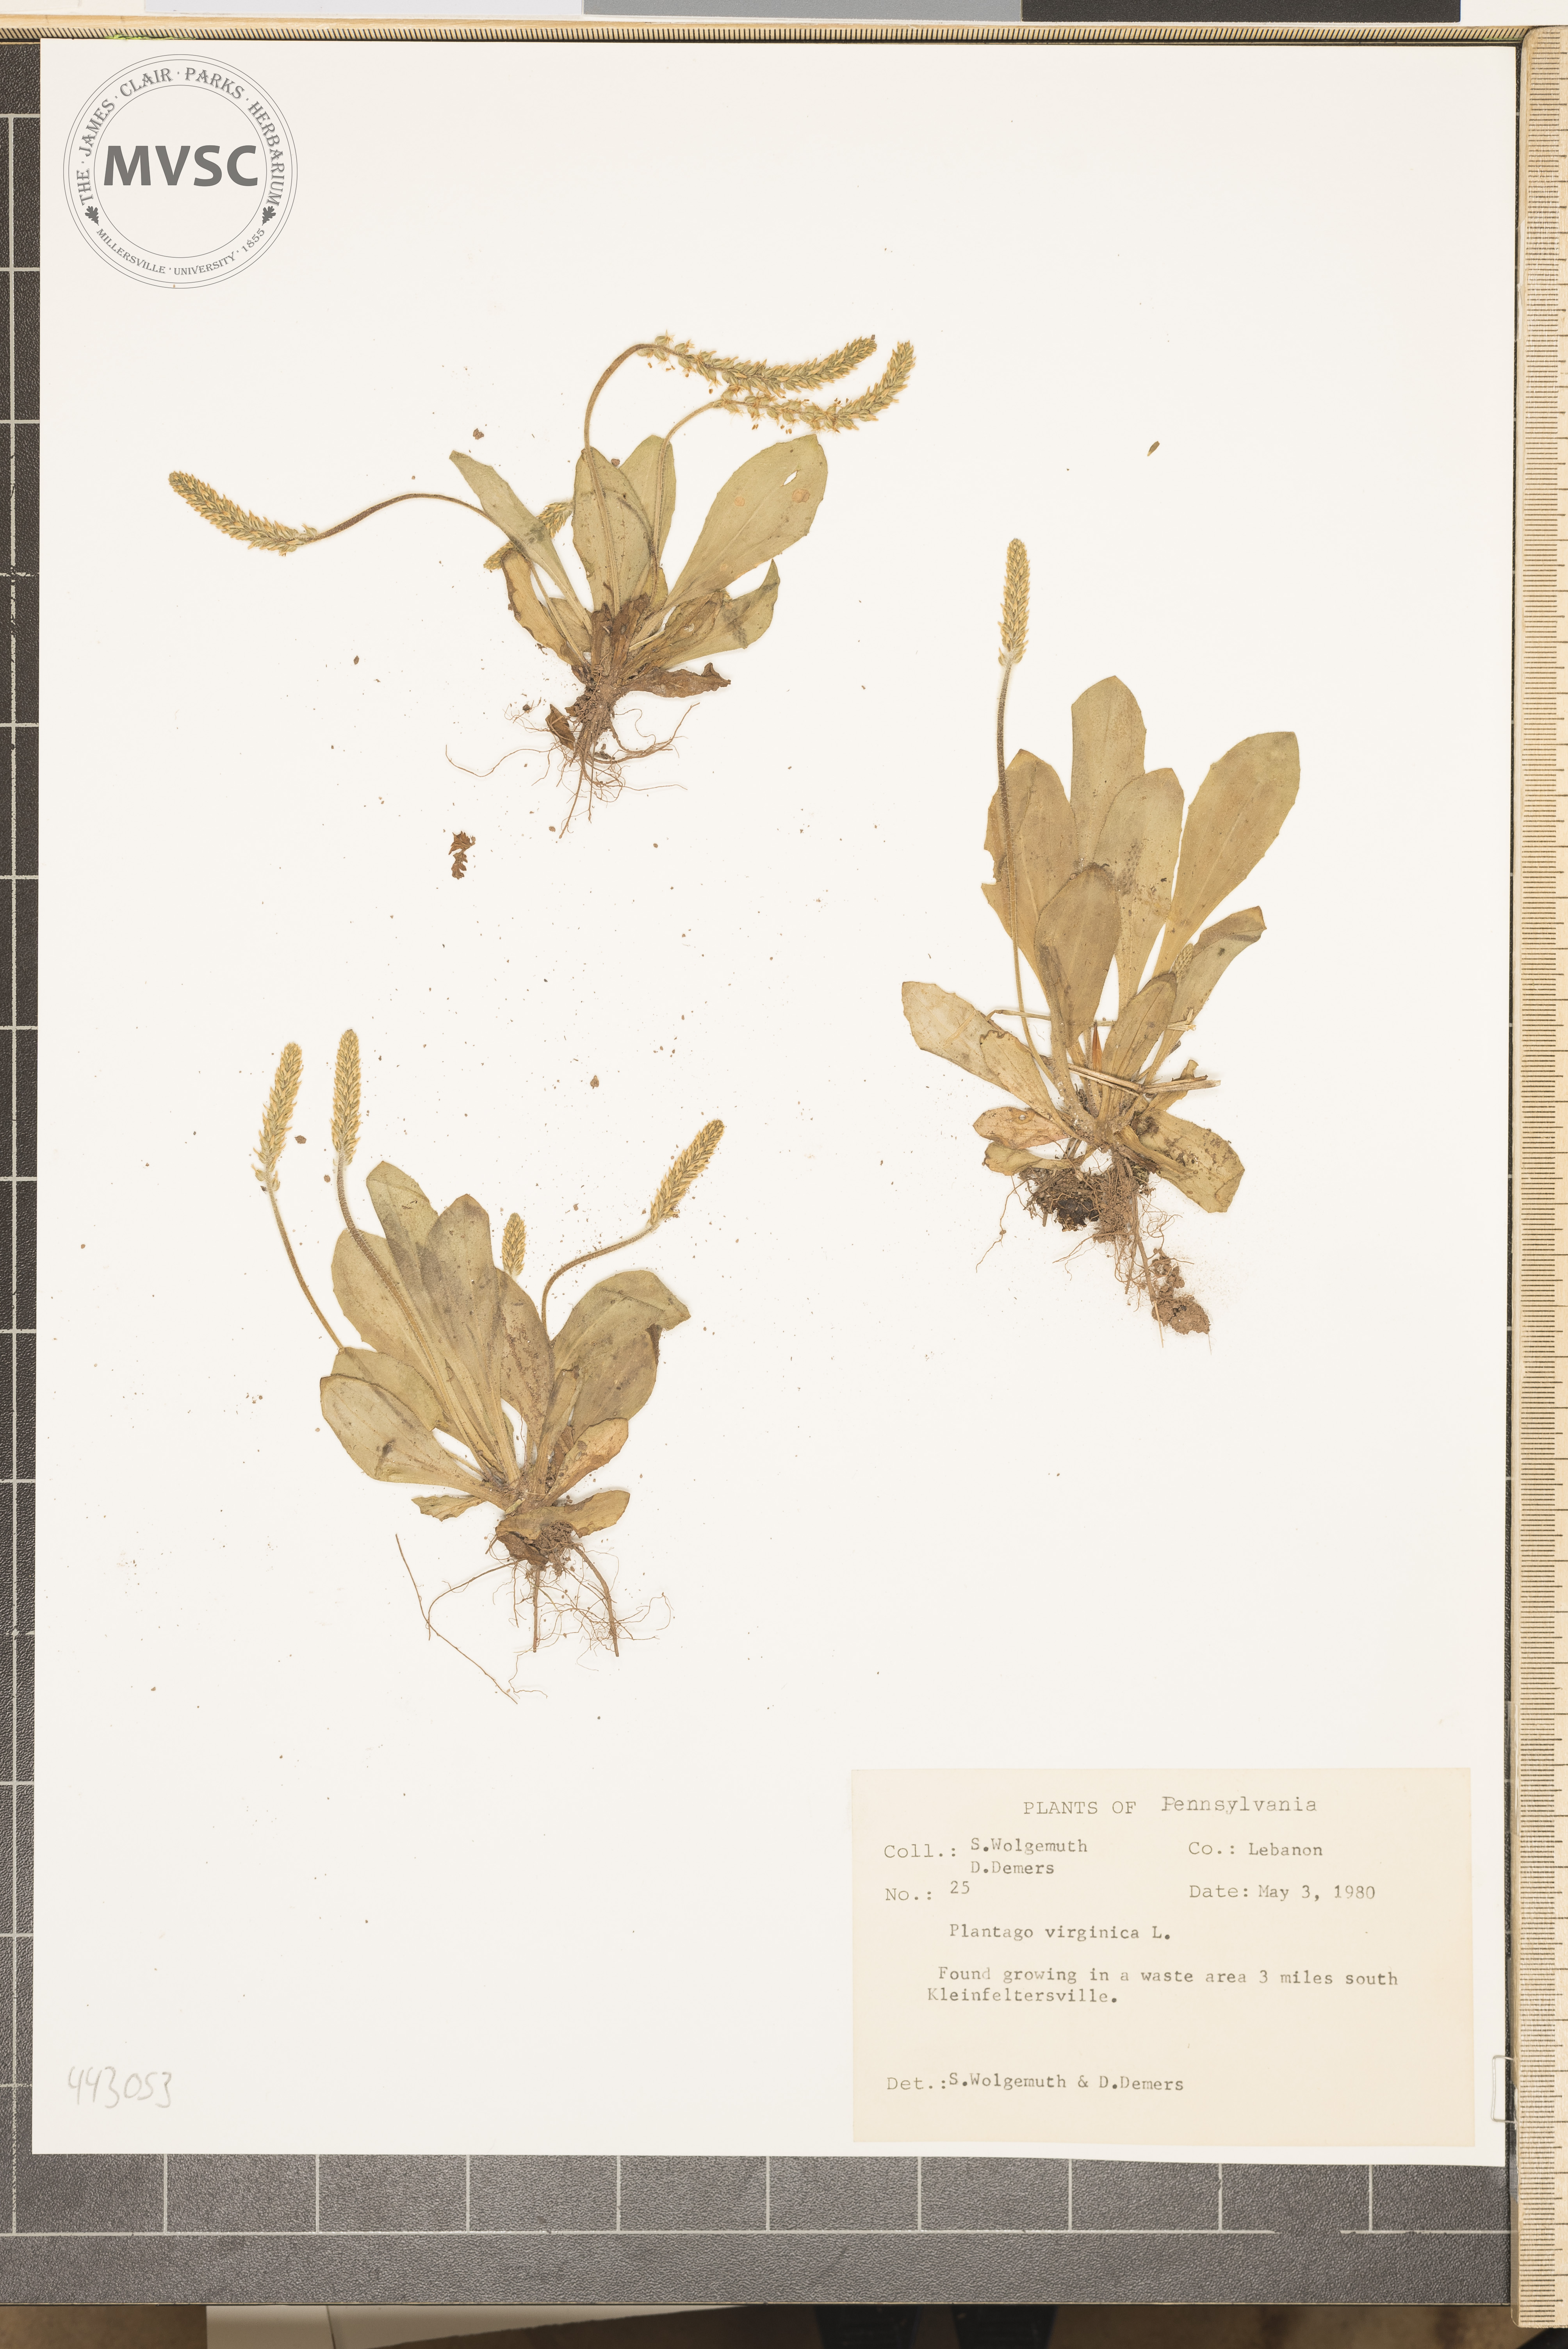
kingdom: Plantae
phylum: Tracheophyta
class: Magnoliopsida
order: Lamiales
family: Plantaginaceae
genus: Plantago
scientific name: Plantago virginica
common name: Hoary plantain
